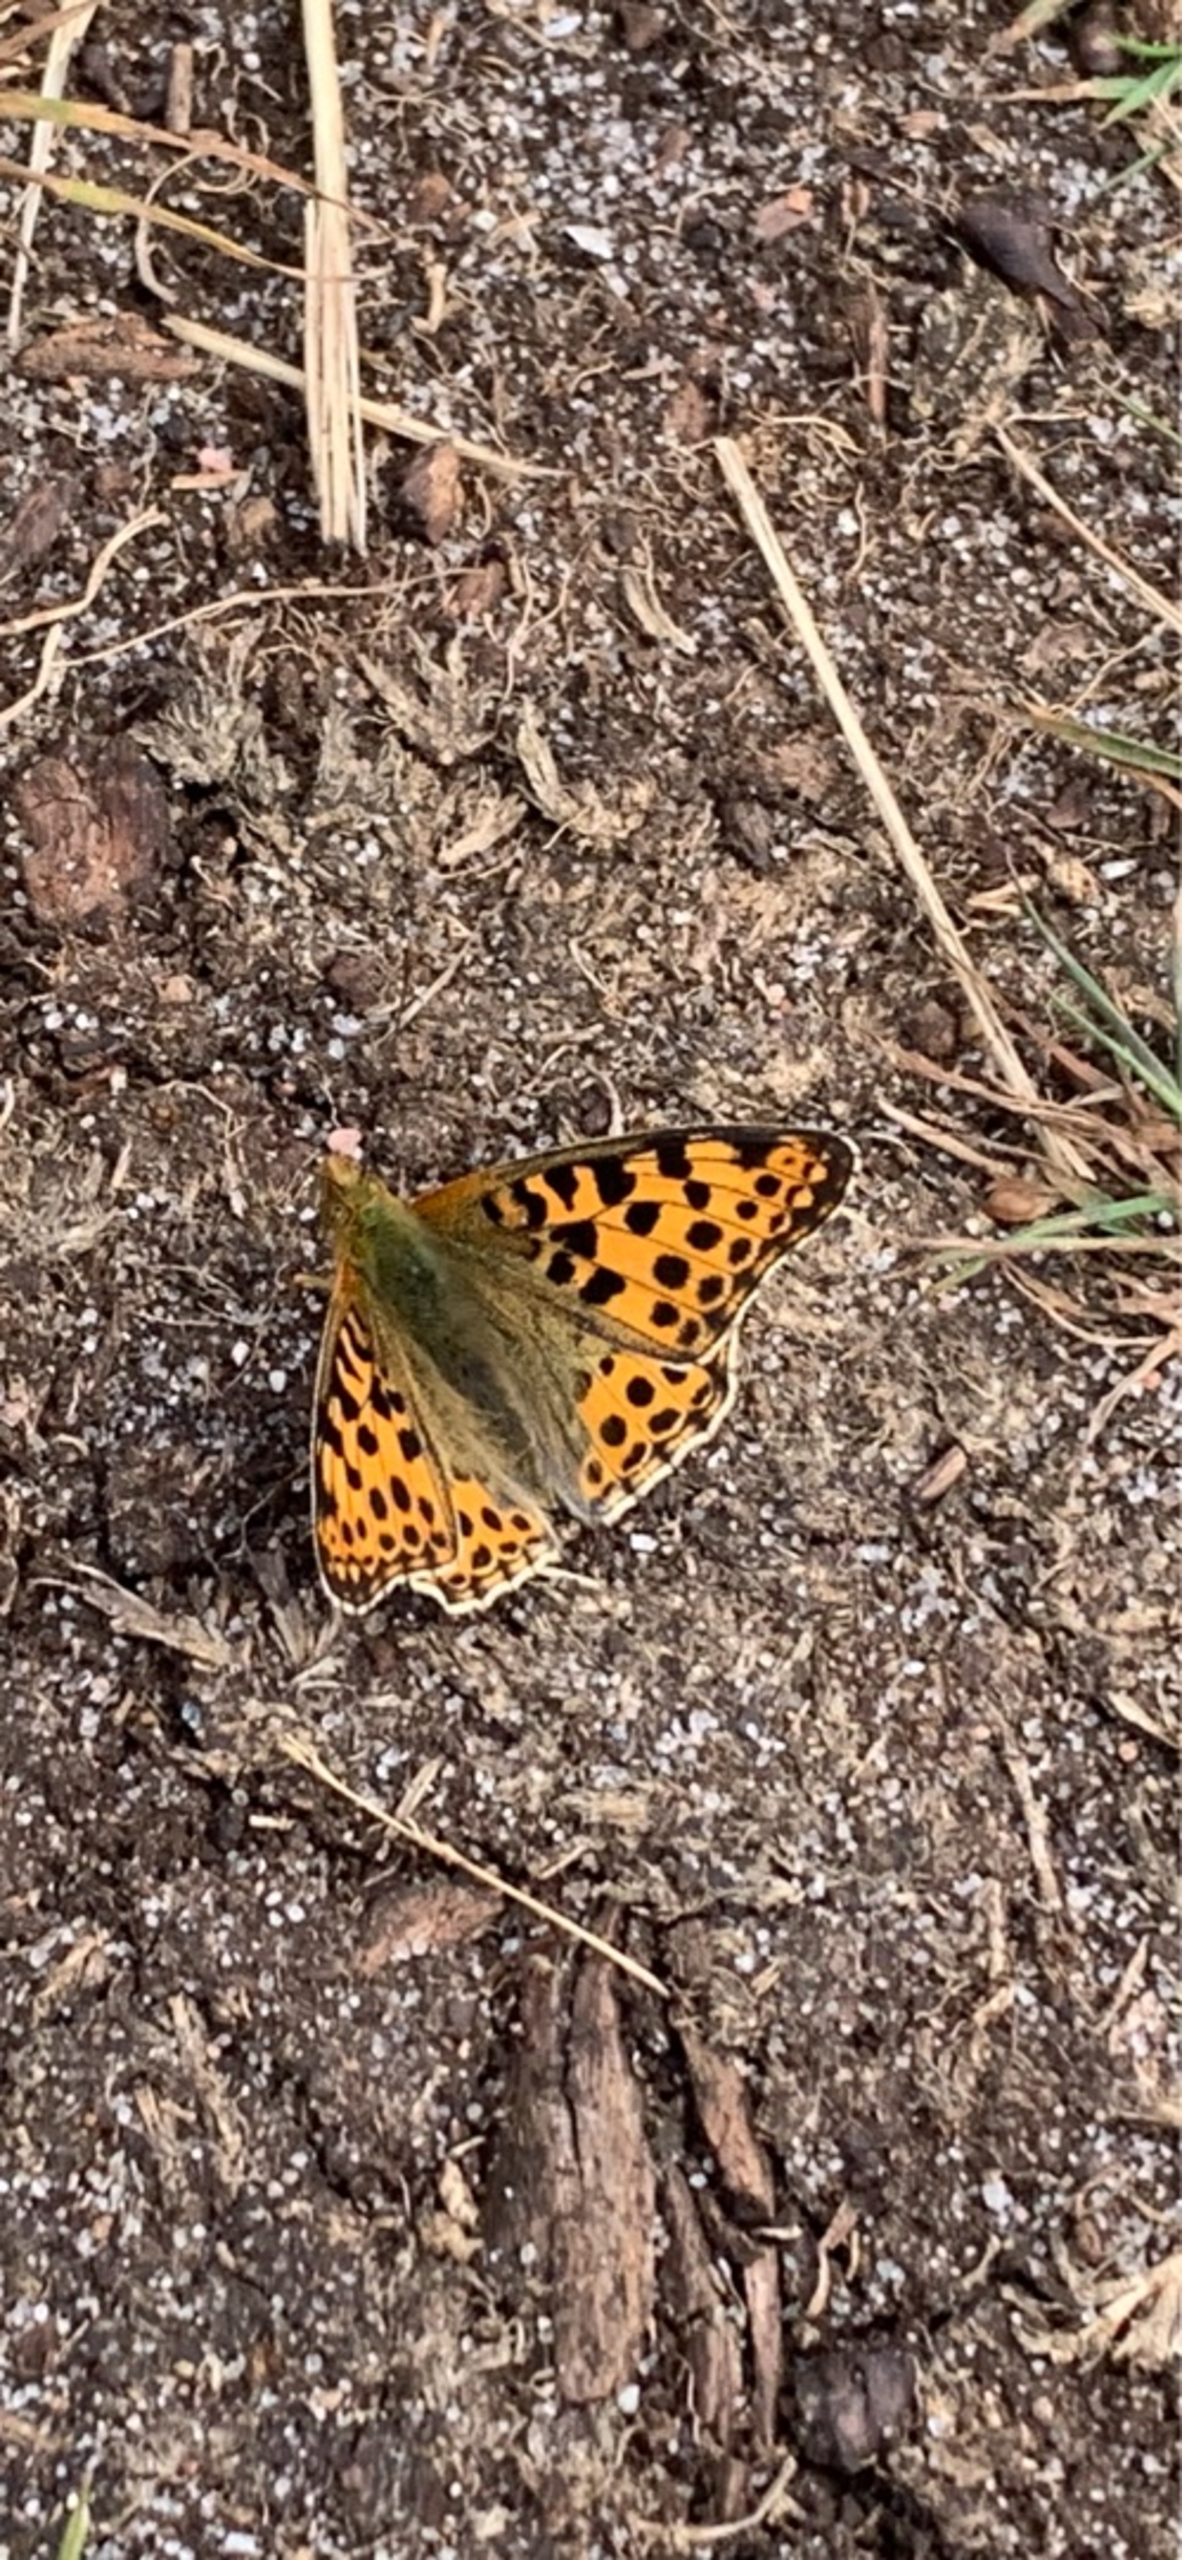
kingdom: Animalia
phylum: Arthropoda
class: Insecta
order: Lepidoptera
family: Nymphalidae
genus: Issoria
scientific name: Issoria lathonia
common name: Storplettet perlemorsommerfugl
